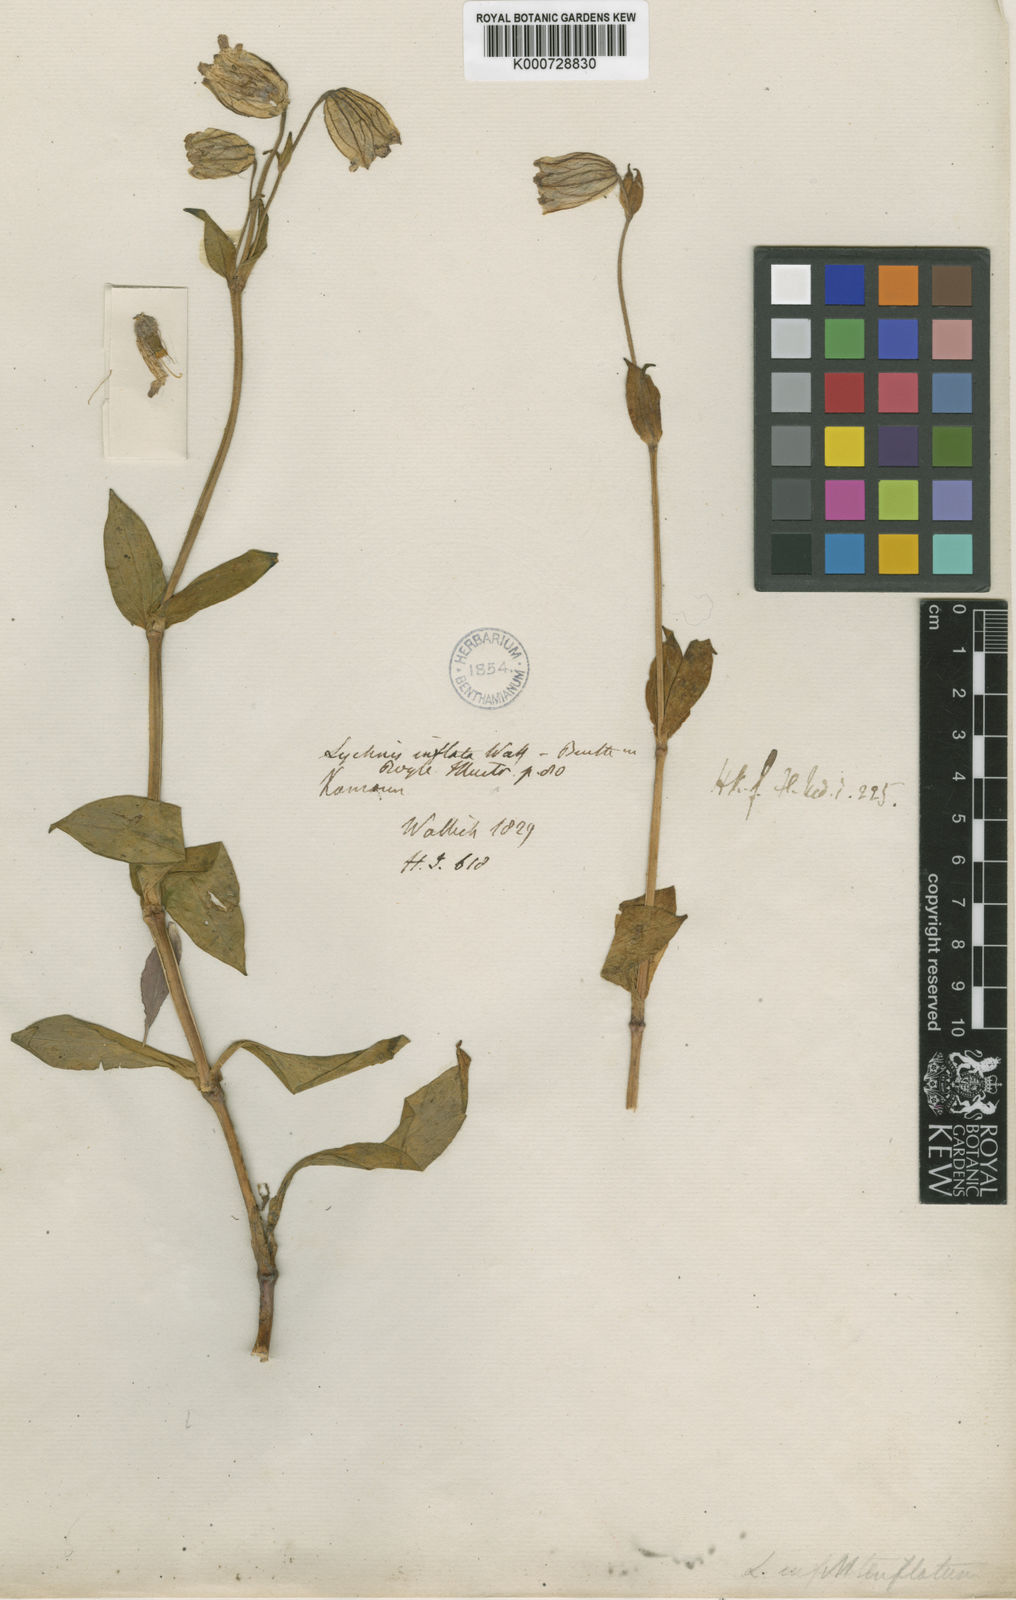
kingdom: Plantae
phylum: Tracheophyta
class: Magnoliopsida
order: Caryophyllales
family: Caryophyllaceae
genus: Silene
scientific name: Silene
